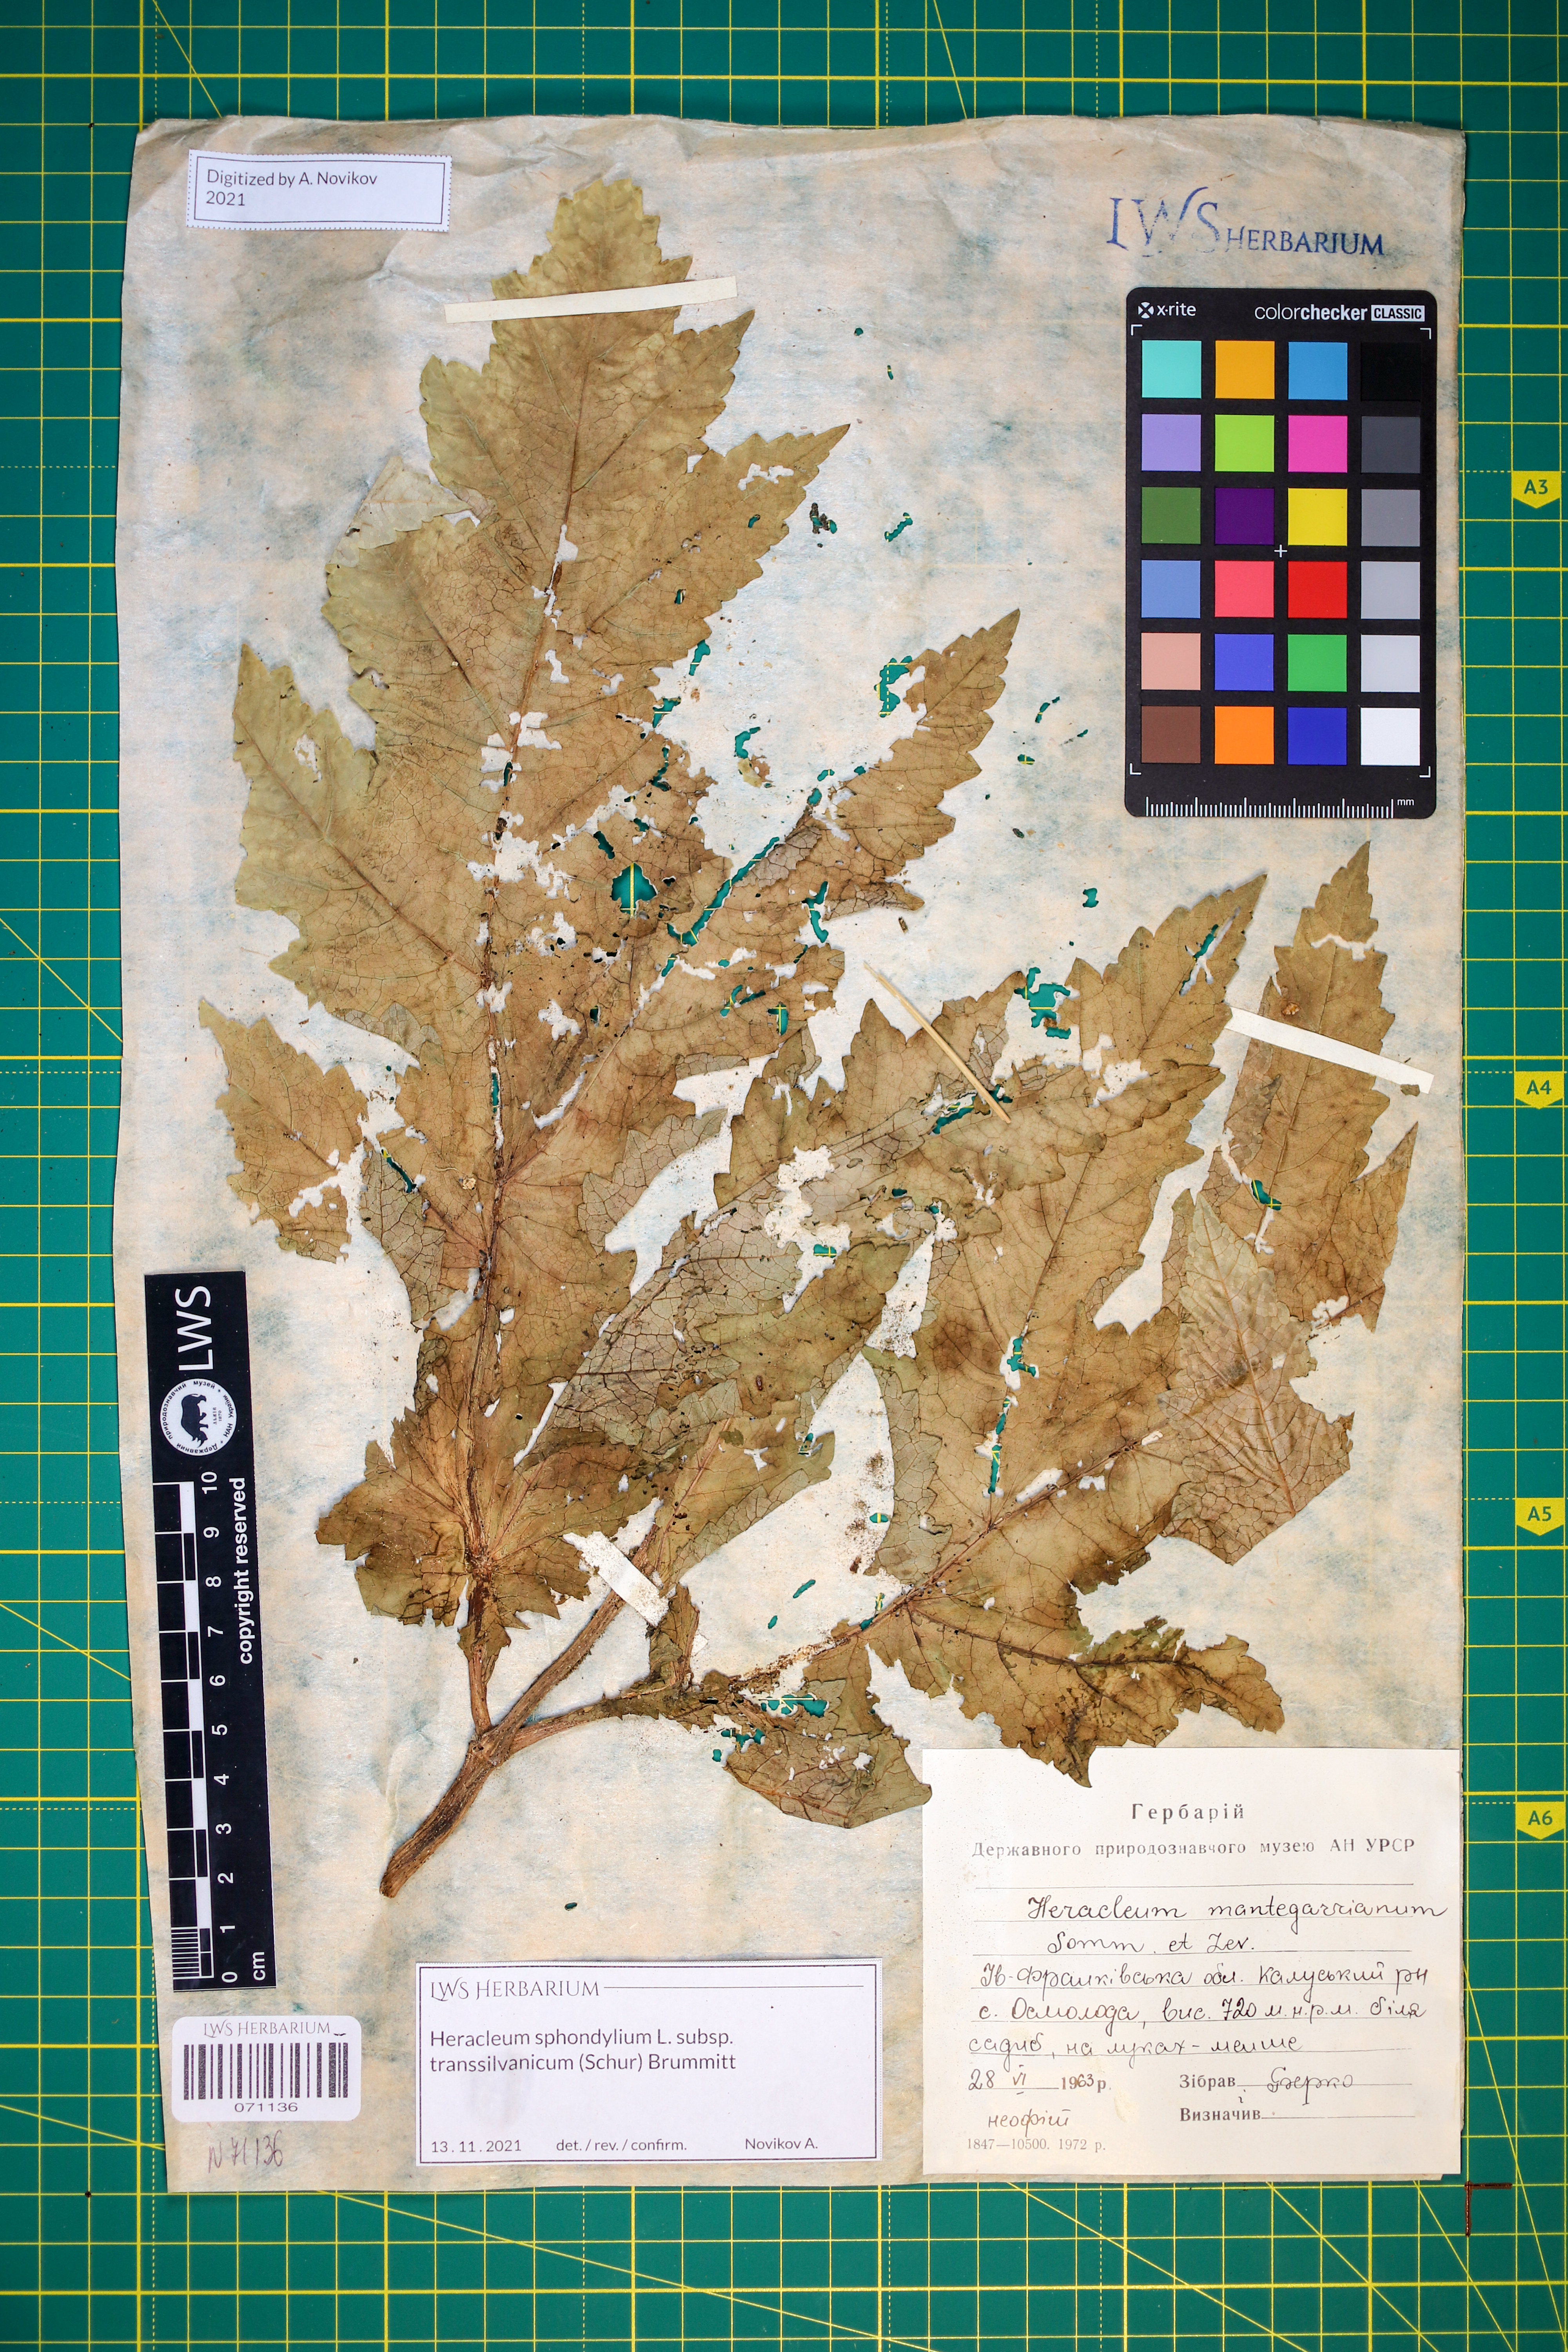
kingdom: Plantae
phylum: Tracheophyta
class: Magnoliopsida
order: Apiales
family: Apiaceae
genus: Heracleum
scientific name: Heracleum sphondylium
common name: Hogweed
